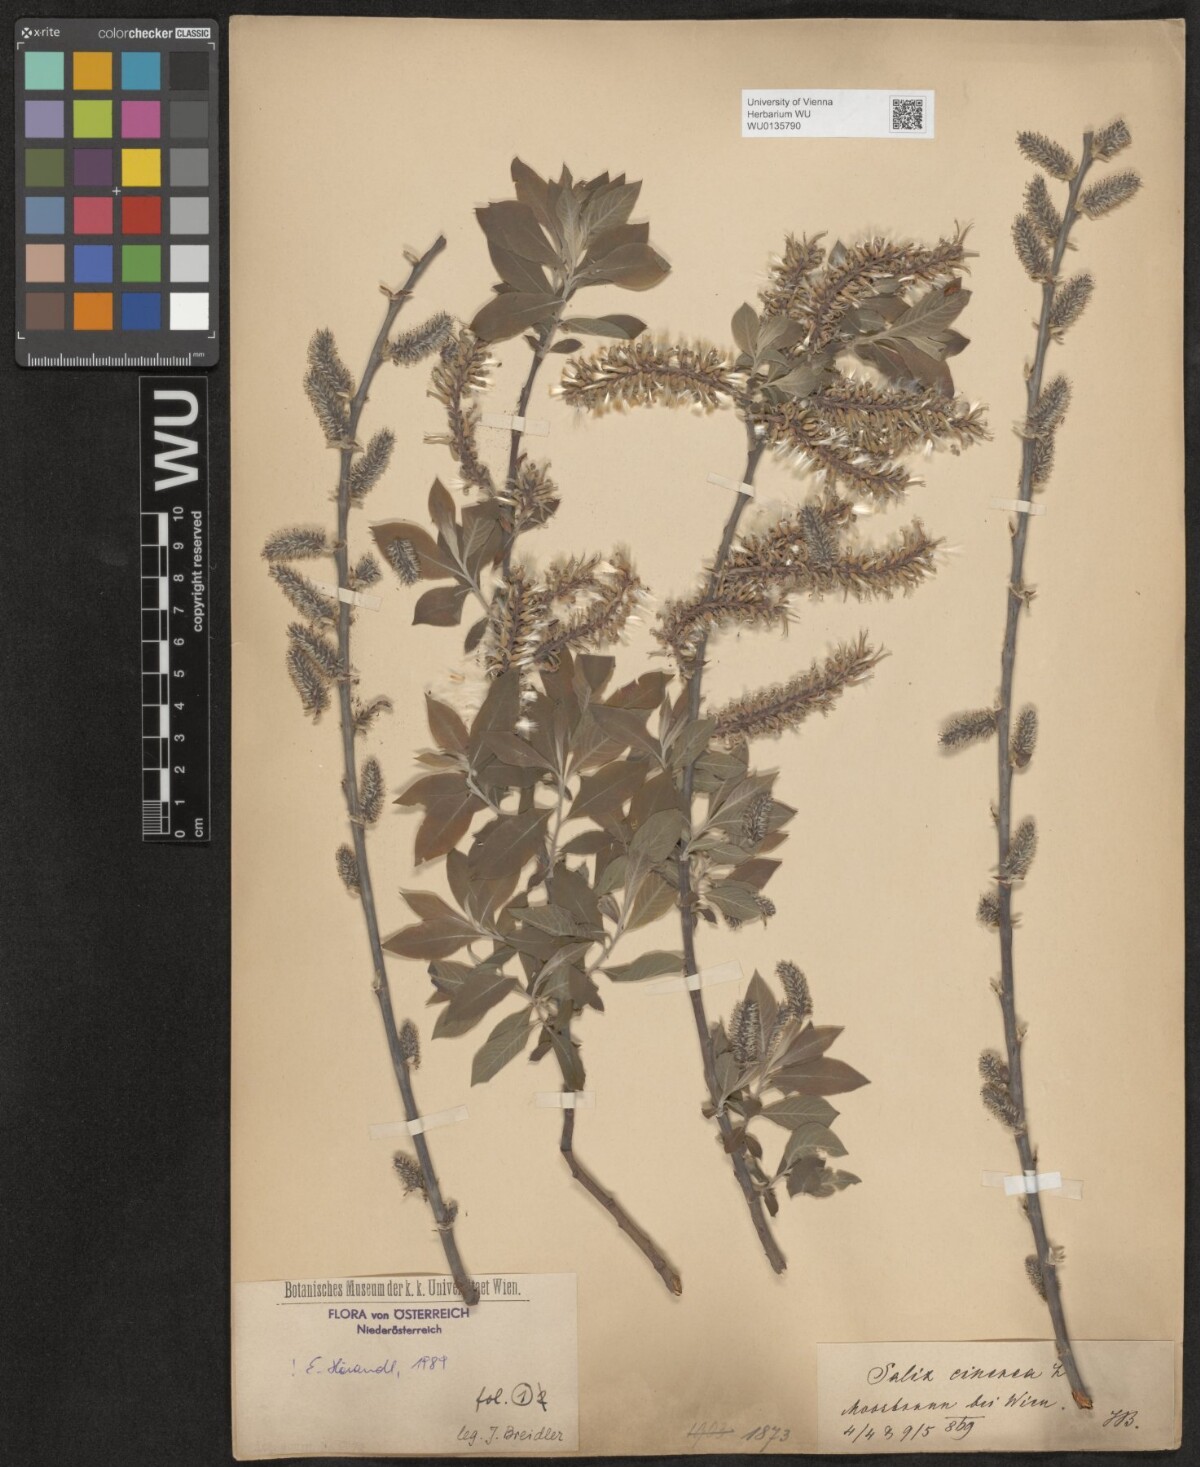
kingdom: Plantae
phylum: Tracheophyta
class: Magnoliopsida
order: Malpighiales
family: Salicaceae
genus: Salix
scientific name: Salix cinerea
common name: Common sallow
